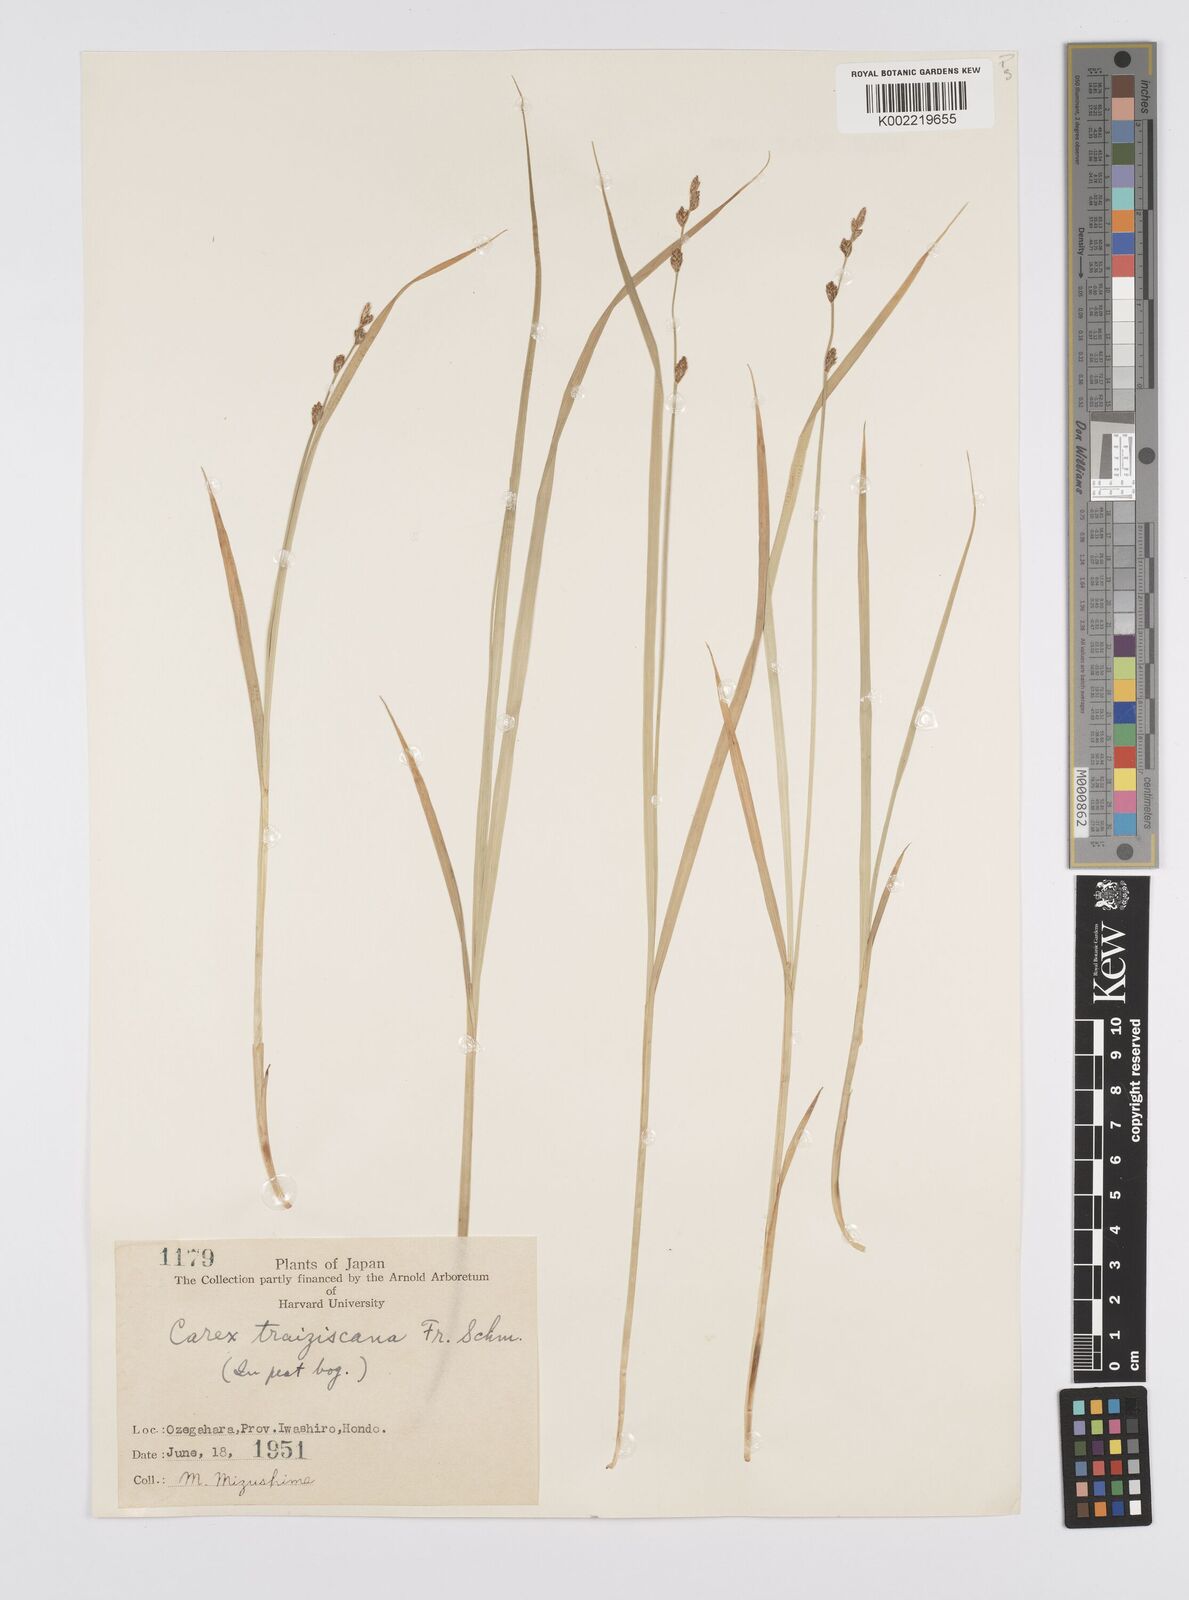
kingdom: Plantae
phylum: Tracheophyta
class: Liliopsida
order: Poales
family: Cyperaceae
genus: Carex
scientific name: Carex traiziscana
